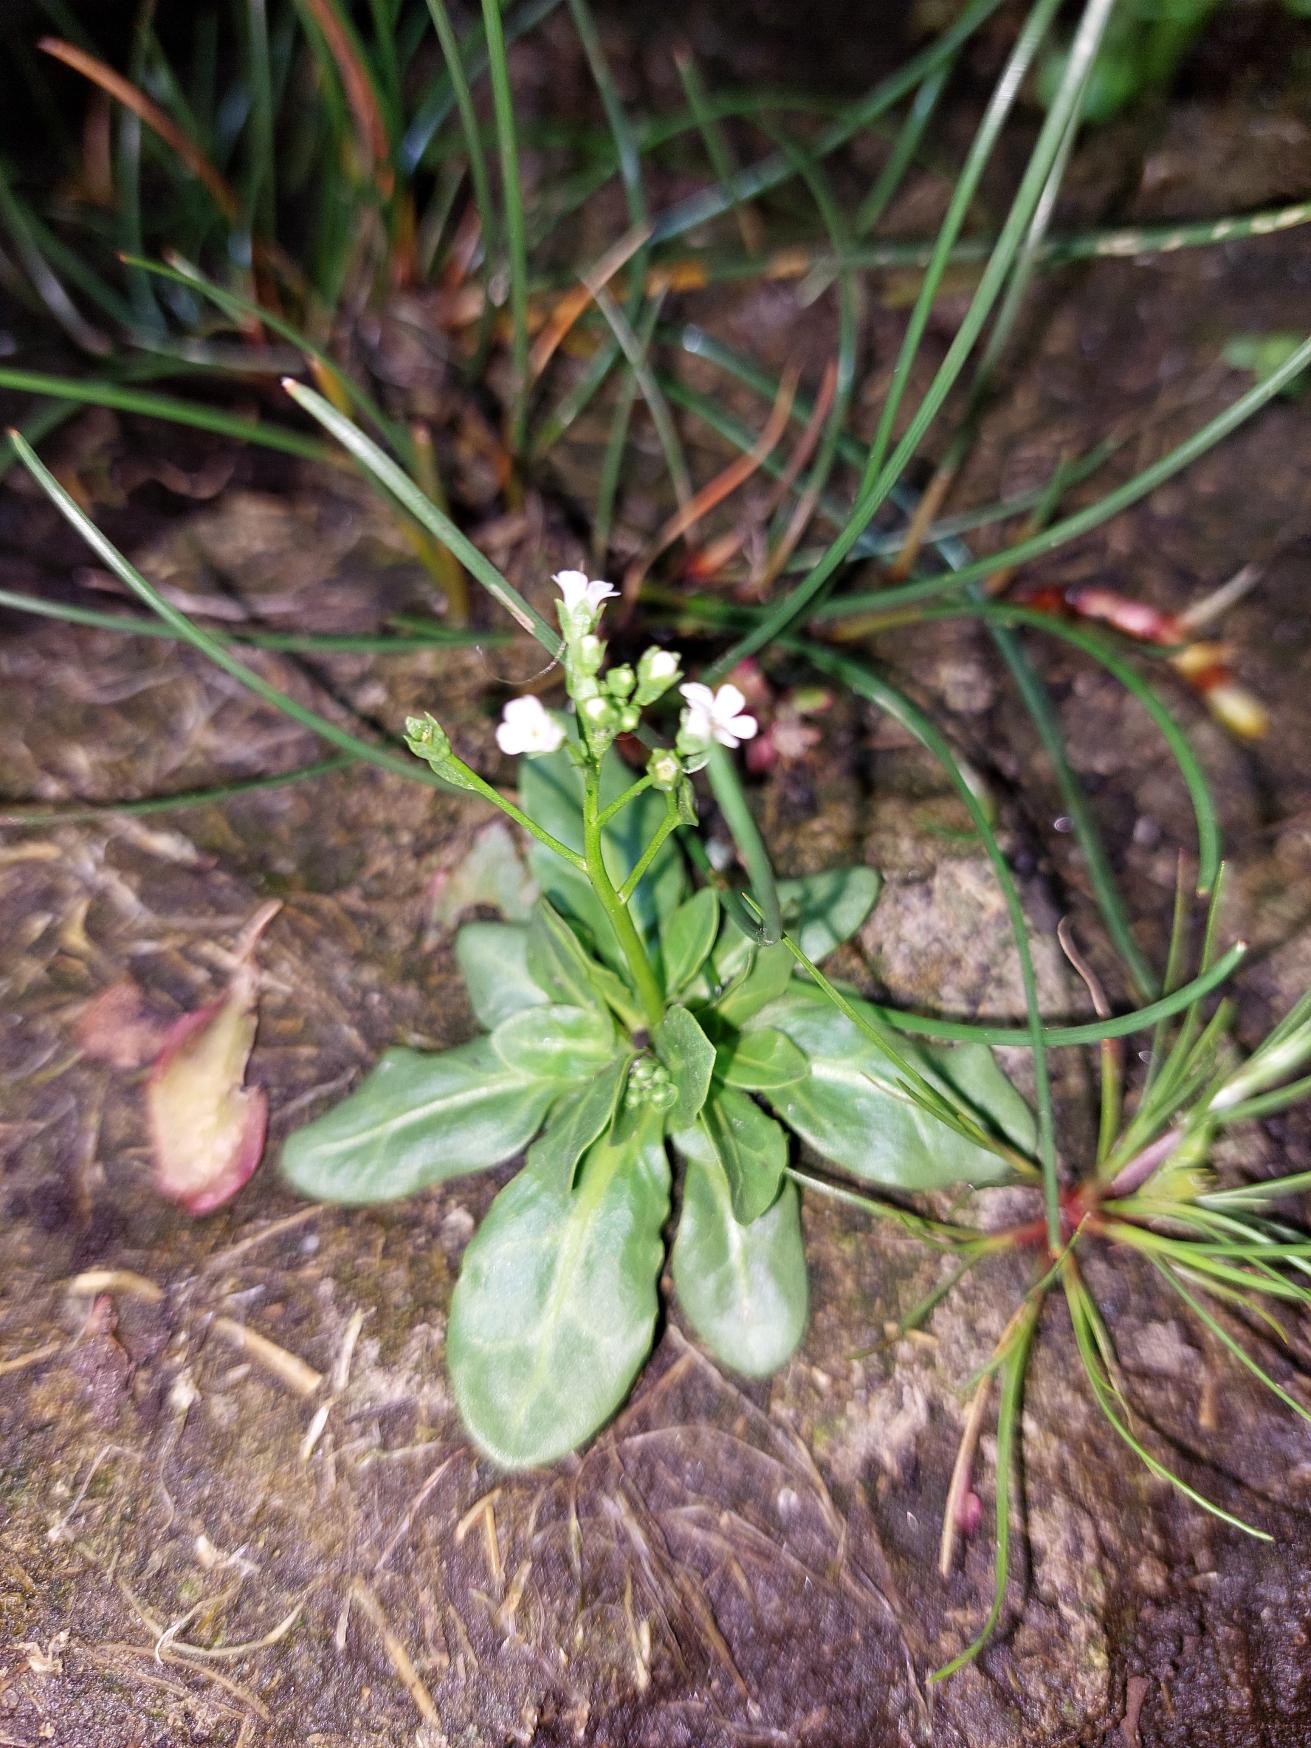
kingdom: Plantae
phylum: Tracheophyta
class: Magnoliopsida
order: Ericales
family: Primulaceae
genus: Samolus
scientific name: Samolus valerandi
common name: Samel
